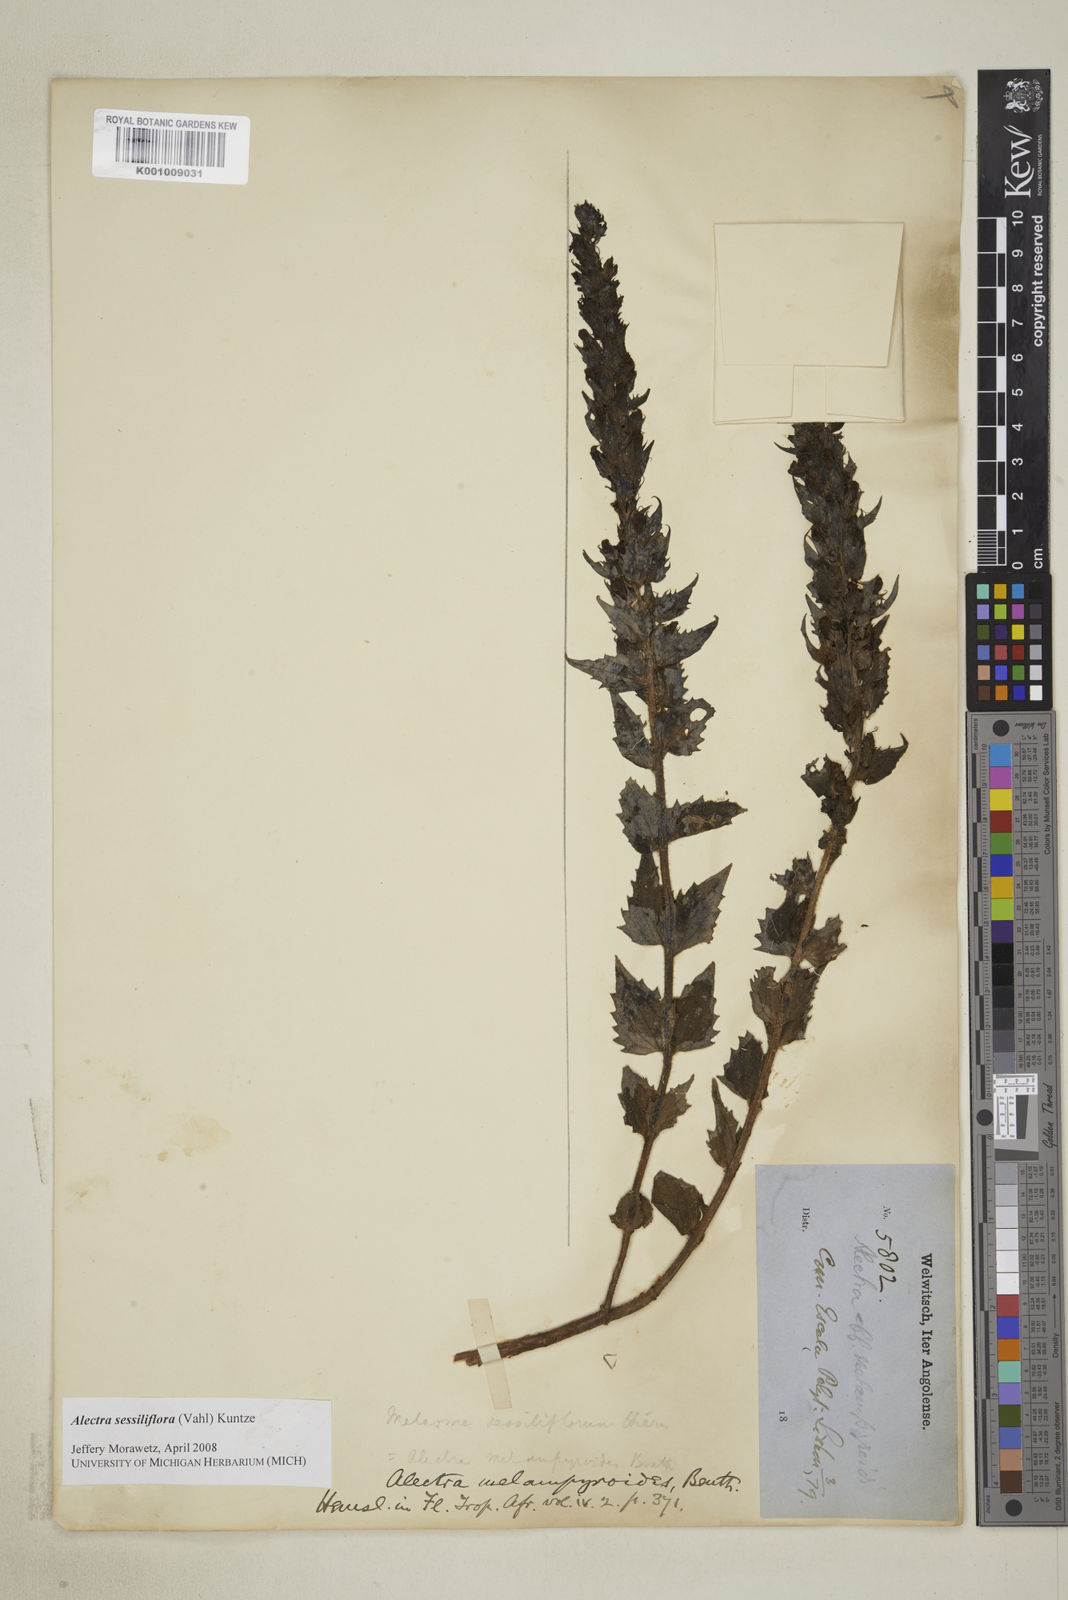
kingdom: Plantae
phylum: Tracheophyta
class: Magnoliopsida
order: Lamiales
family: Orobanchaceae
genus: Alectra
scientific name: Alectra sessiliflora
